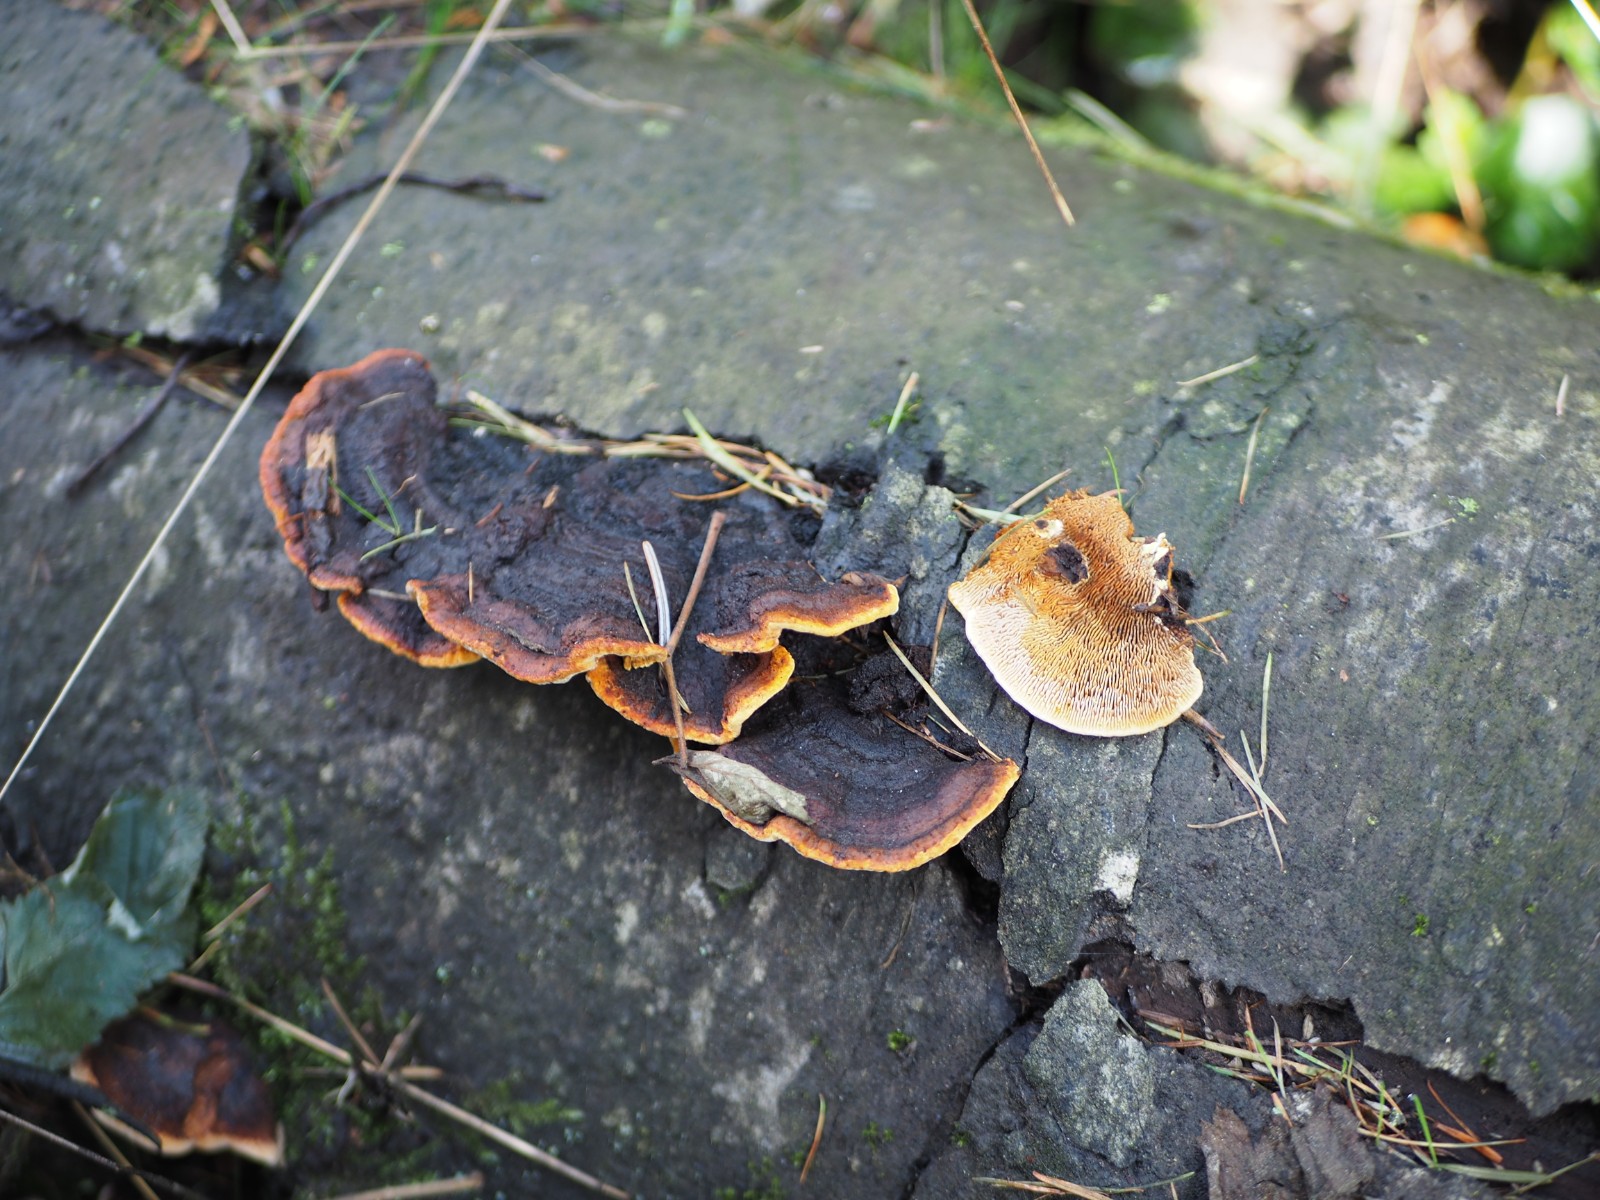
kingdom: Fungi
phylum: Basidiomycota
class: Agaricomycetes
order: Gloeophyllales
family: Gloeophyllaceae
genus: Gloeophyllum
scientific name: Gloeophyllum sepiarium
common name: fyrre-korkhat
